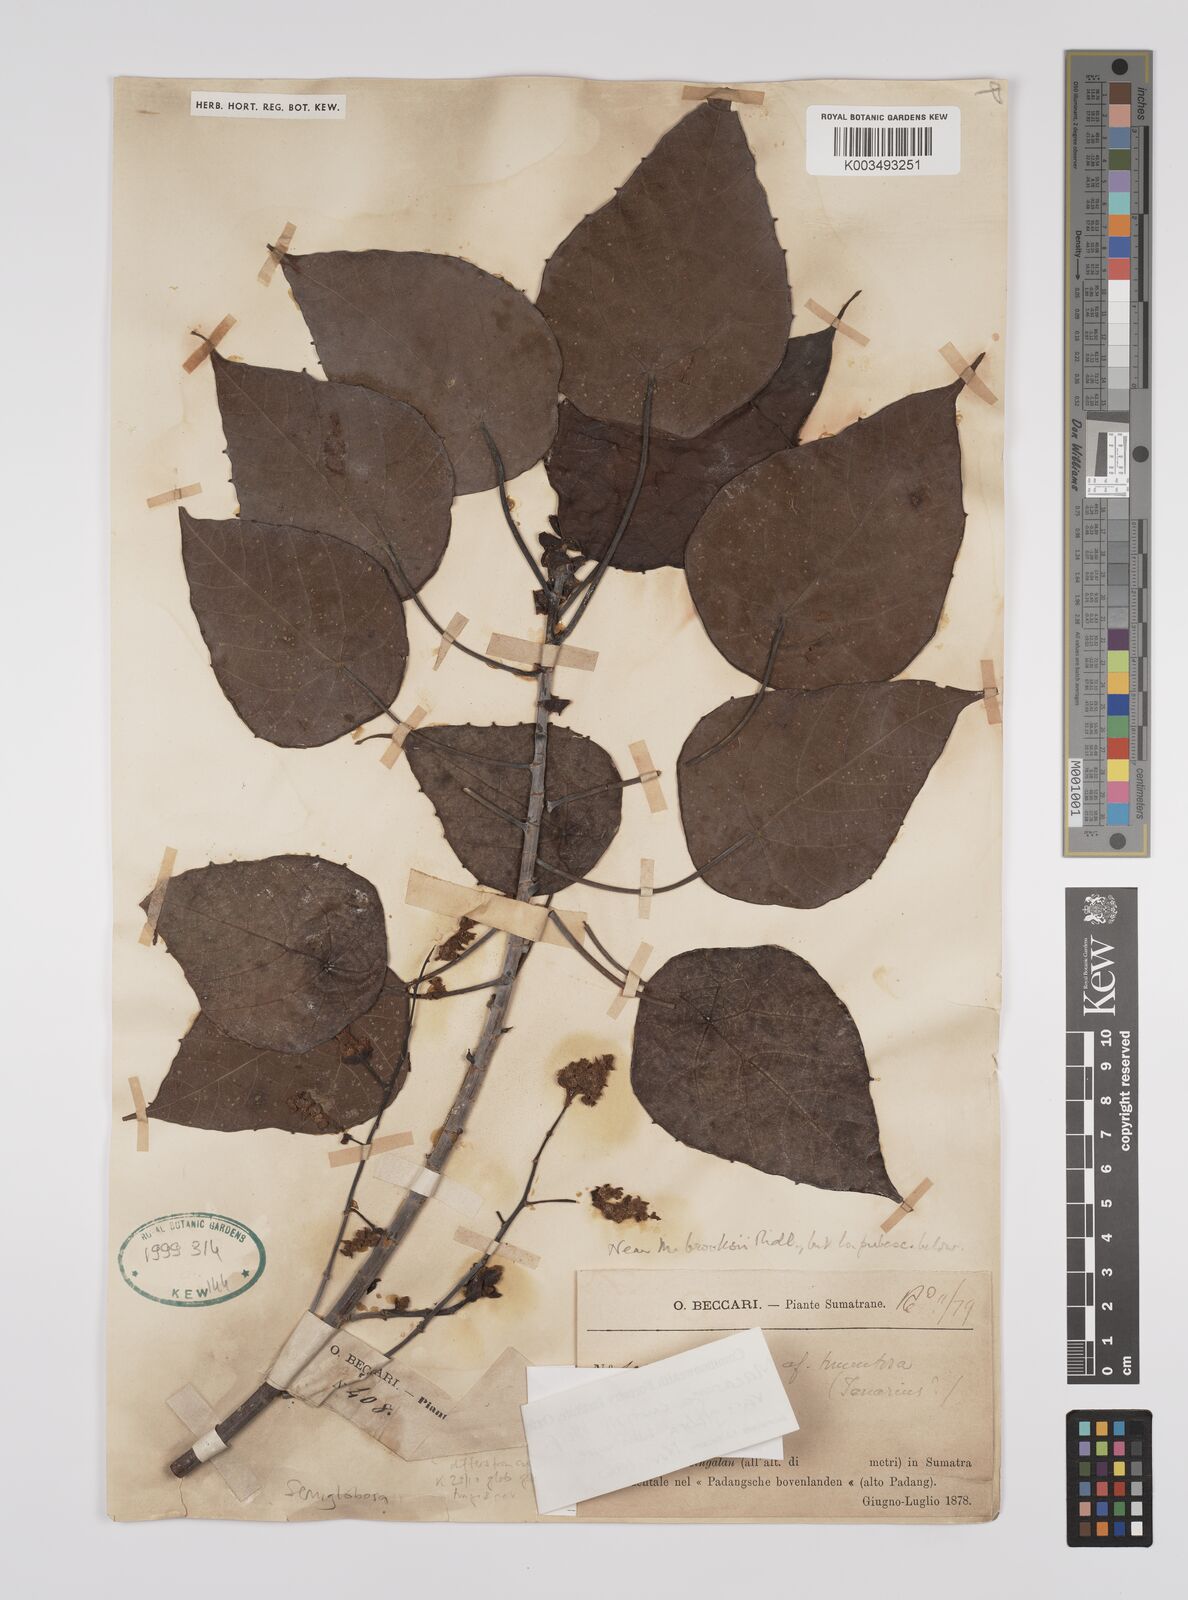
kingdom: Plantae
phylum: Tracheophyta
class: Magnoliopsida
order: Malpighiales
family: Euphorbiaceae
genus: Macaranga
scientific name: Macaranga pachyphylla
